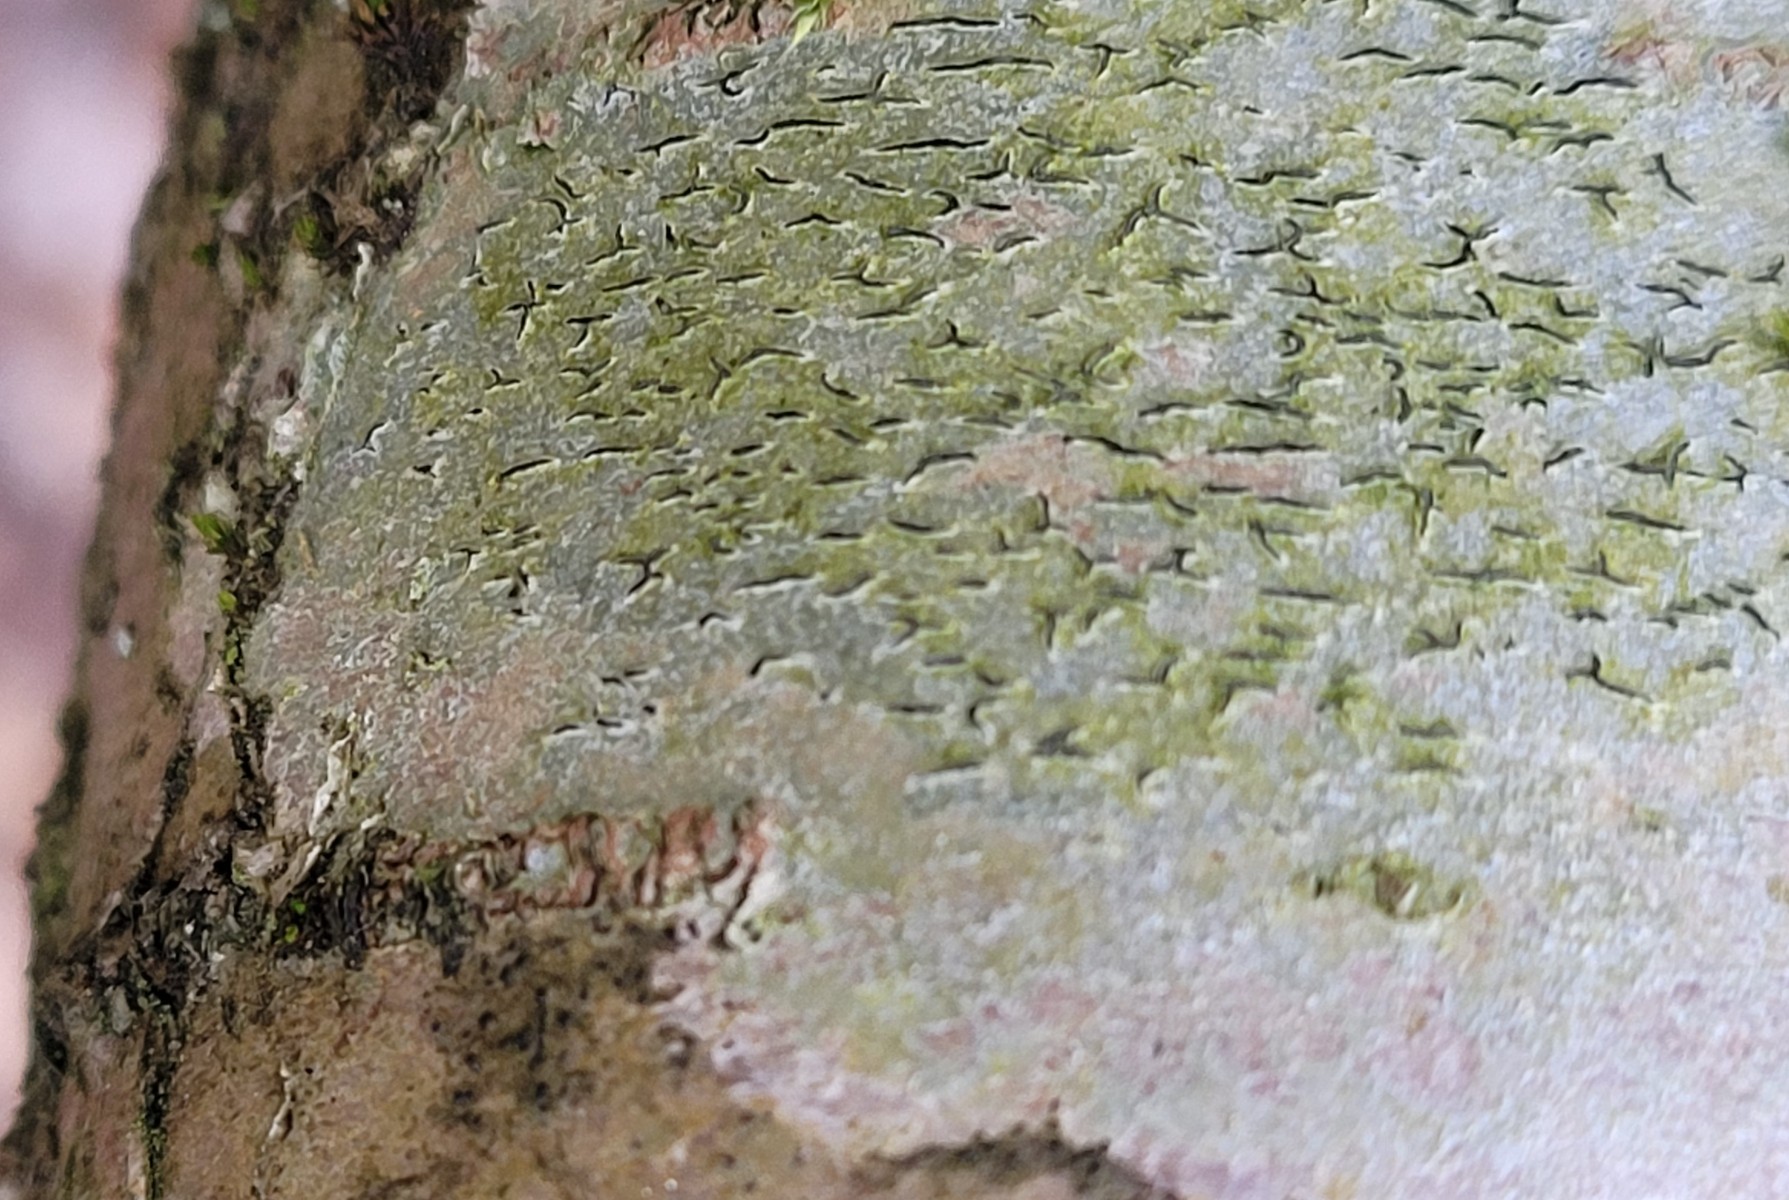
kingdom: Fungi
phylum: Ascomycota
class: Lecanoromycetes
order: Ostropales
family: Graphidaceae
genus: Graphis
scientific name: Graphis scripta
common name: almindelig skriftlav
